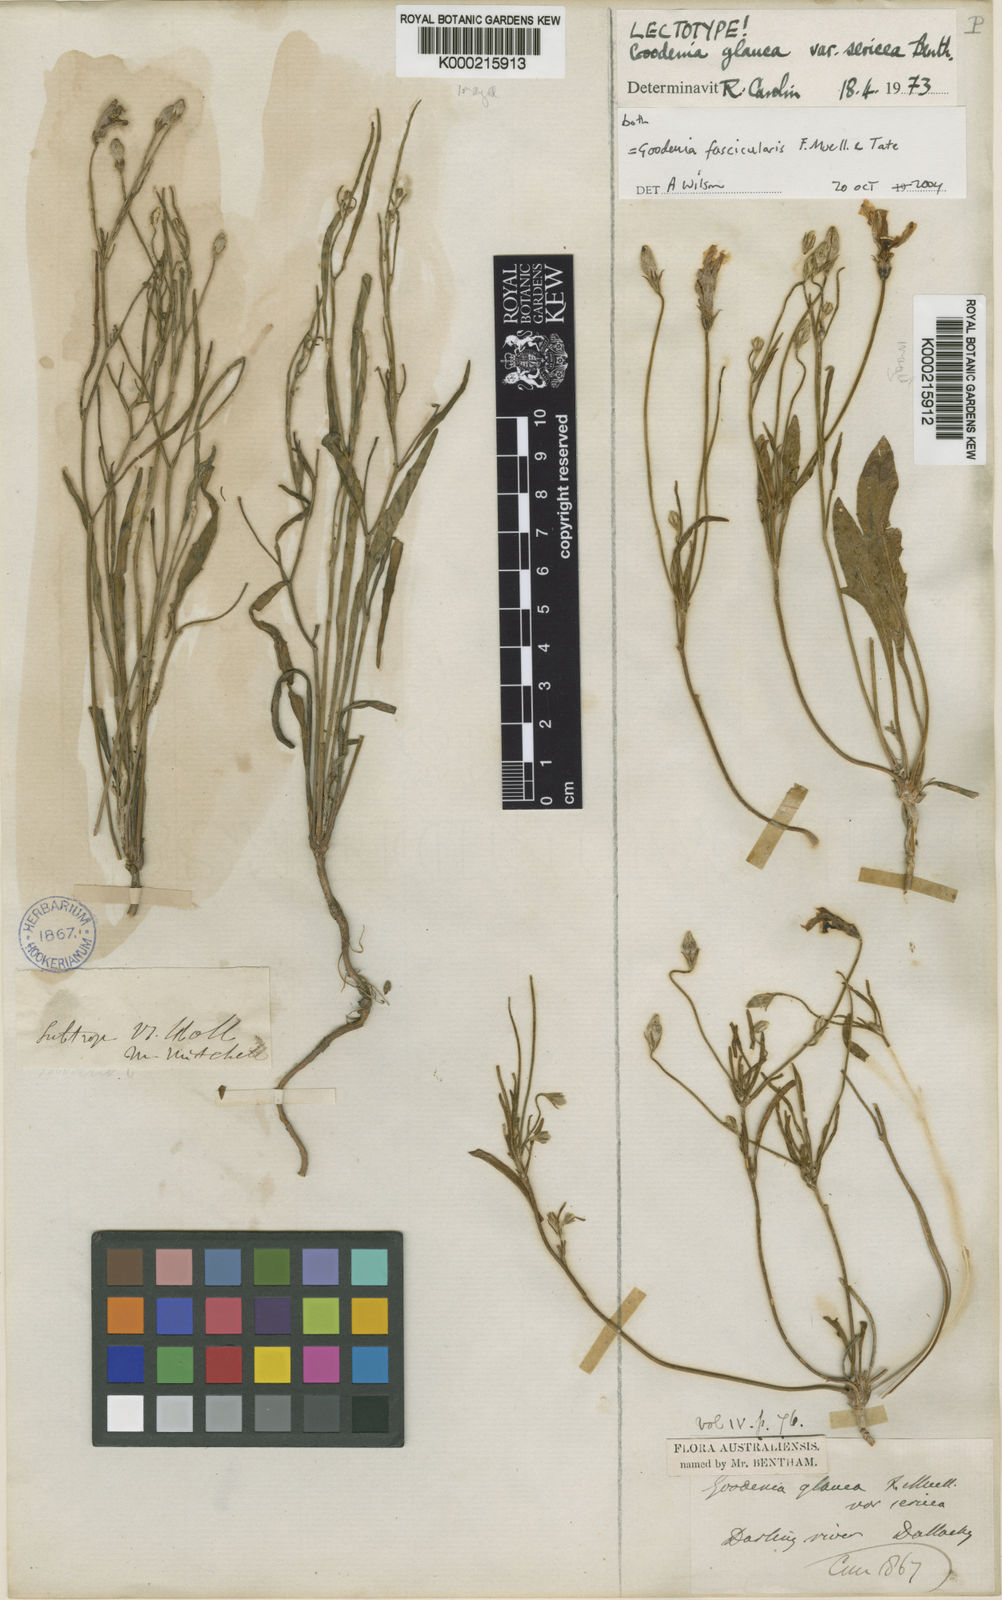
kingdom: Plantae
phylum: Tracheophyta
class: Magnoliopsida
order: Asterales
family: Goodeniaceae
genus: Goodenia
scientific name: Goodenia fascicularis
